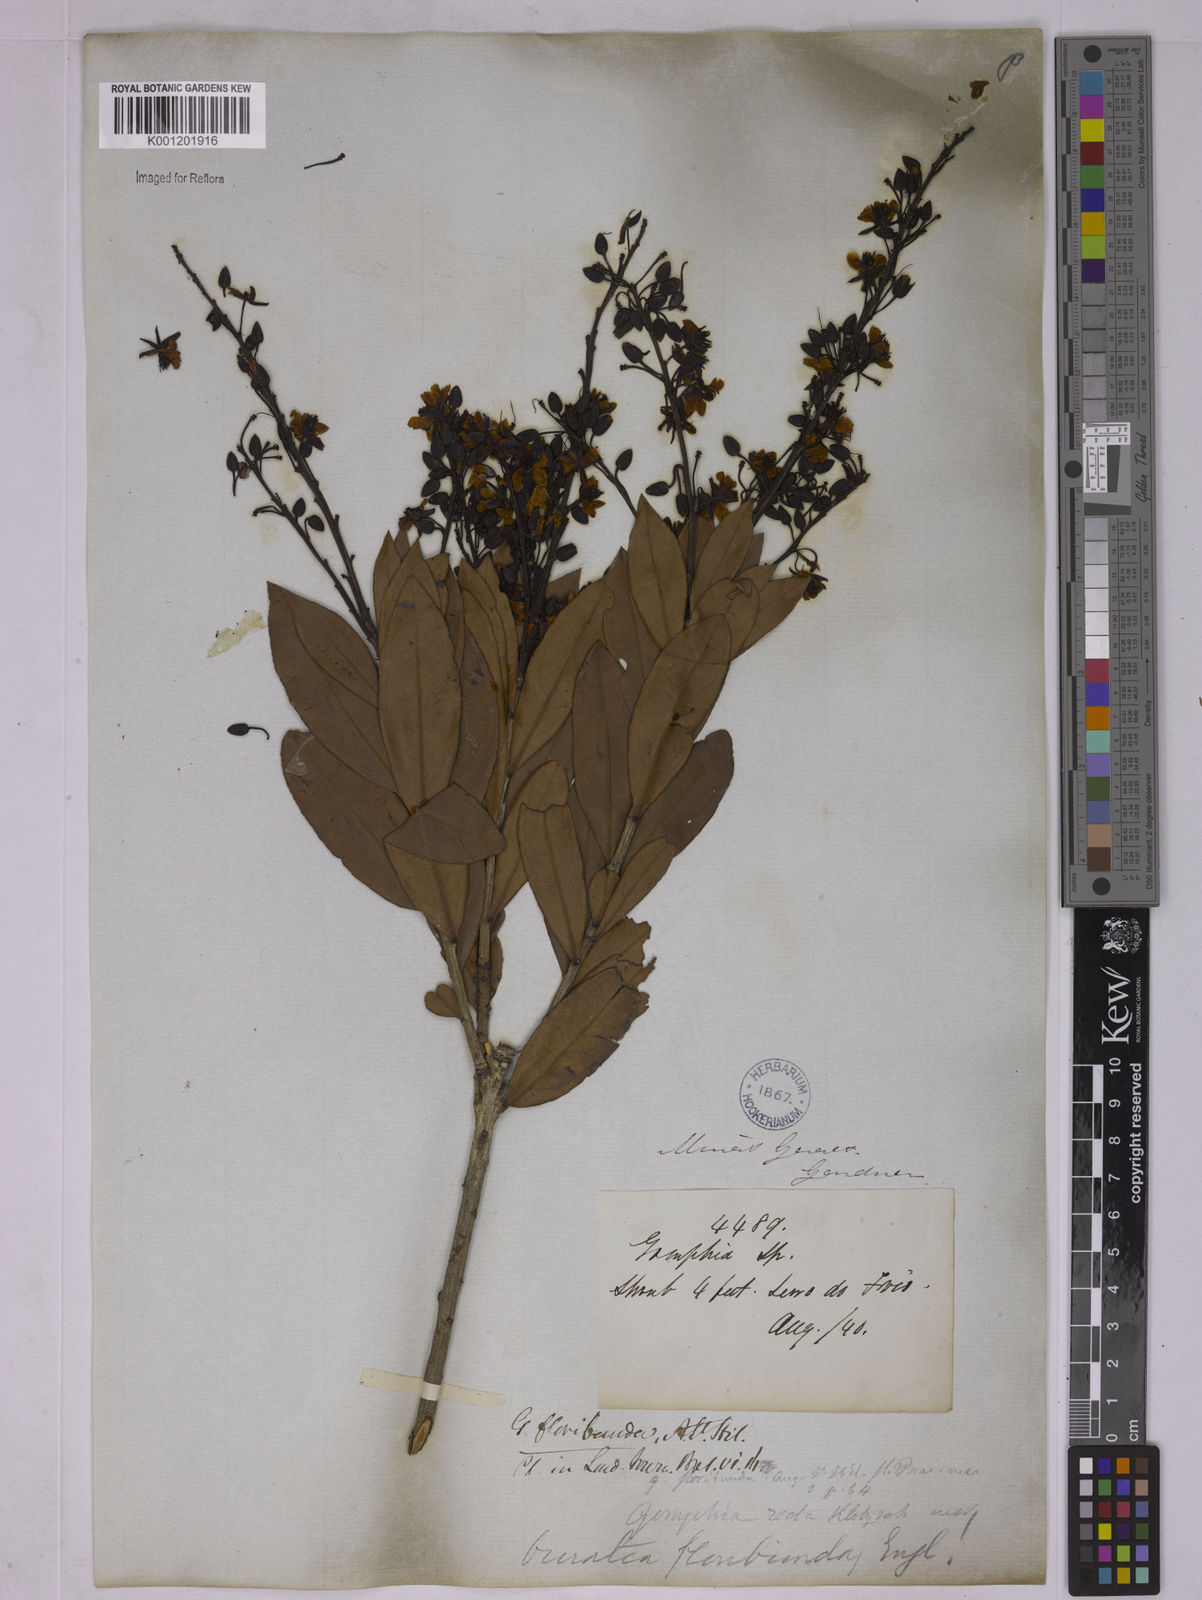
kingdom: Plantae
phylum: Tracheophyta
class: Magnoliopsida
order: Malpighiales
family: Ochnaceae
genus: Ouratea
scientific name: Ouratea floribunda
